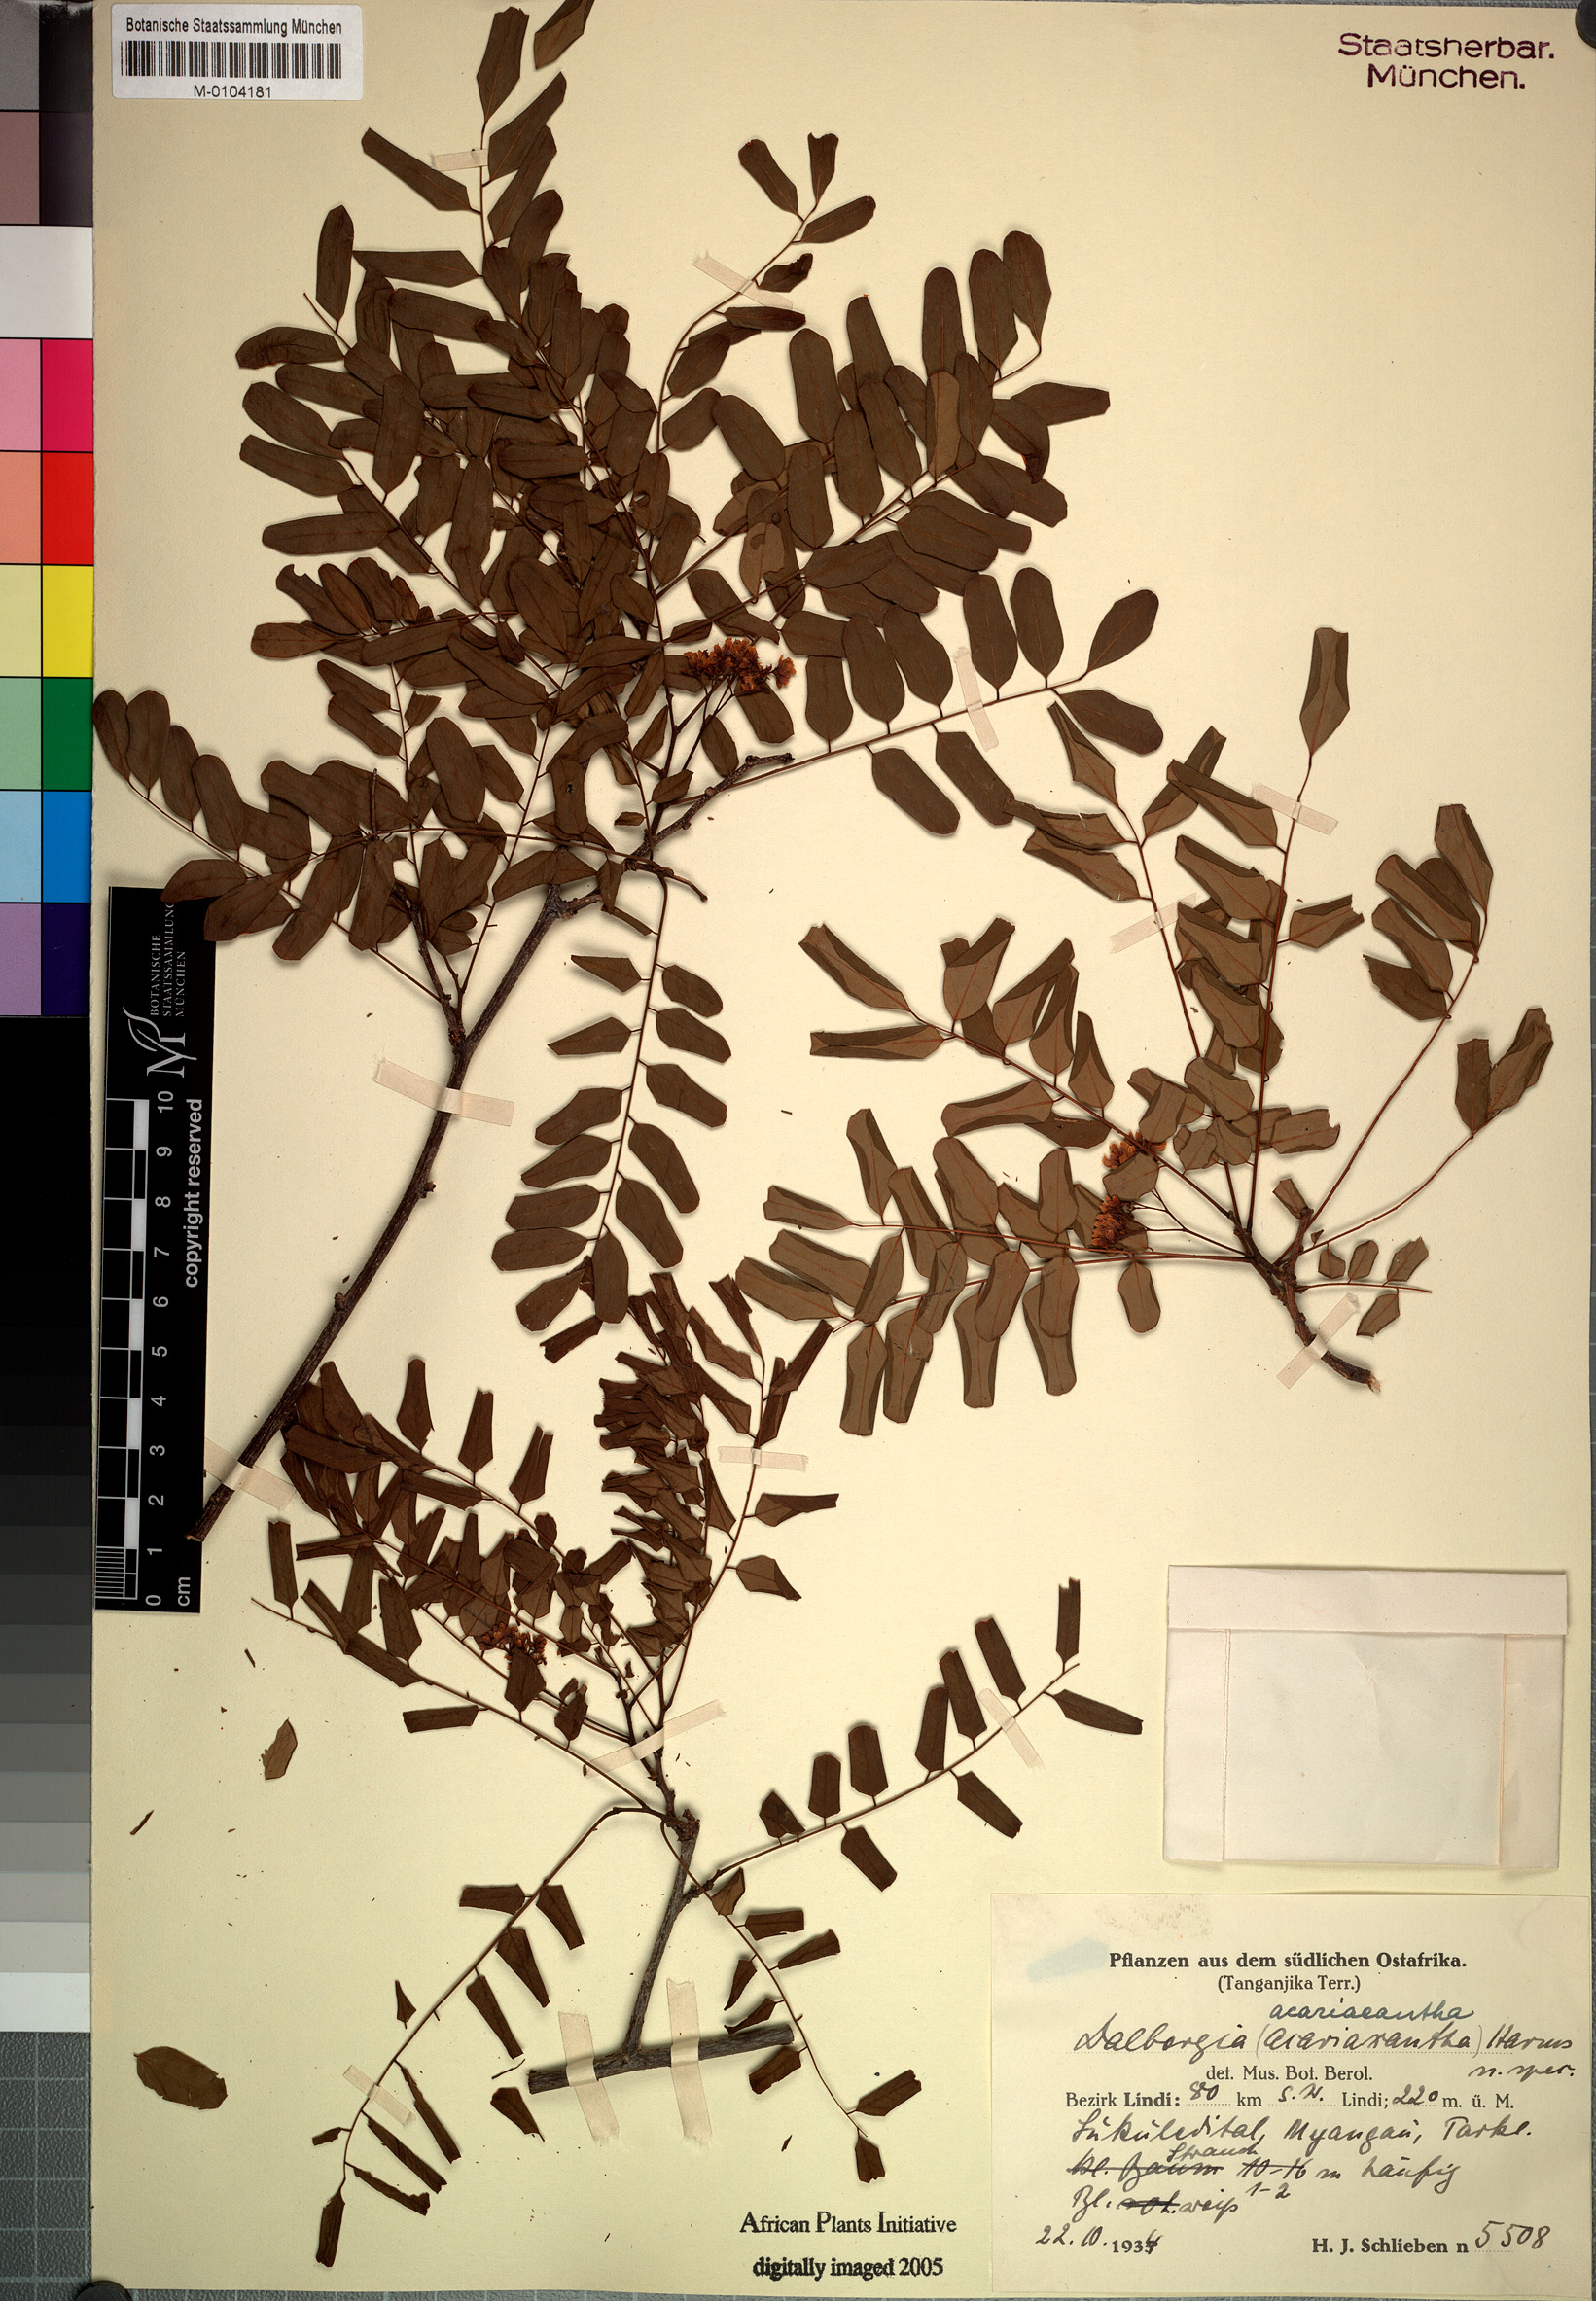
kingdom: Plantae
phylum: Tracheophyta
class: Magnoliopsida
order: Fabales
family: Fabaceae
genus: Dalbergia
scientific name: Dalbergia acariaeantha
